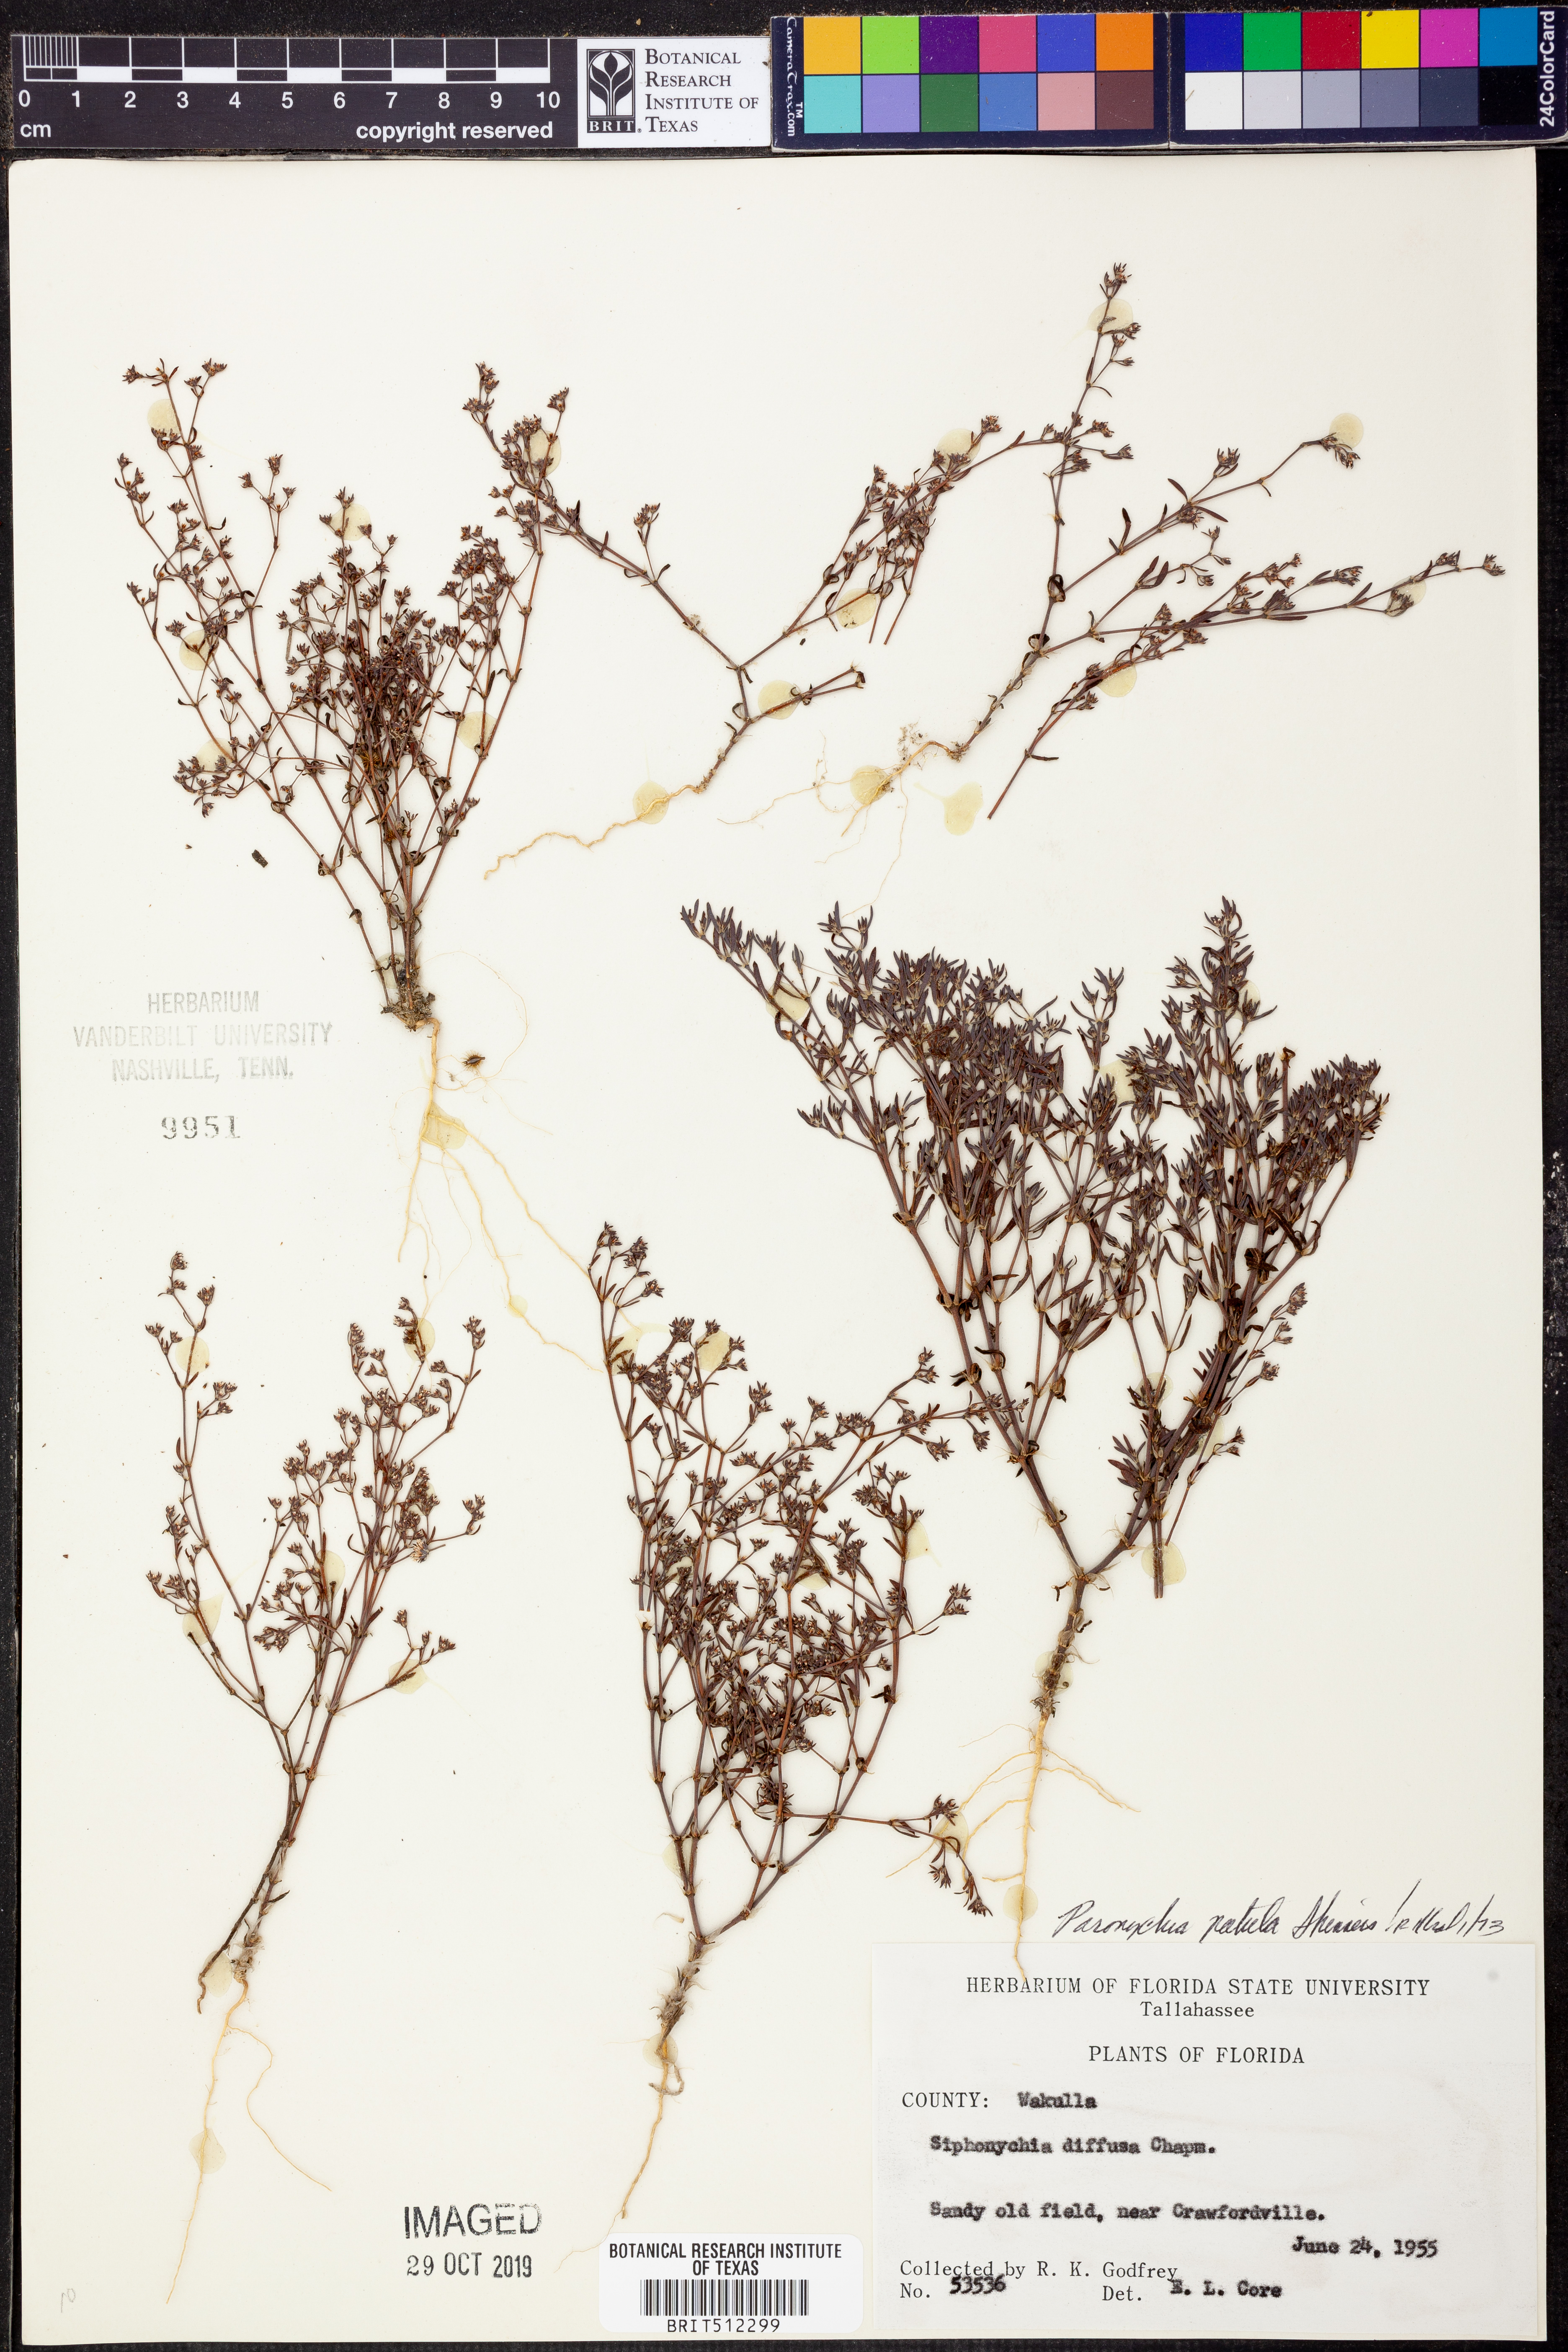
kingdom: Plantae
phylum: Tracheophyta
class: Magnoliopsida
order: Caryophyllales
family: Caryophyllaceae
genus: Paronychia
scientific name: Paronychia patula
